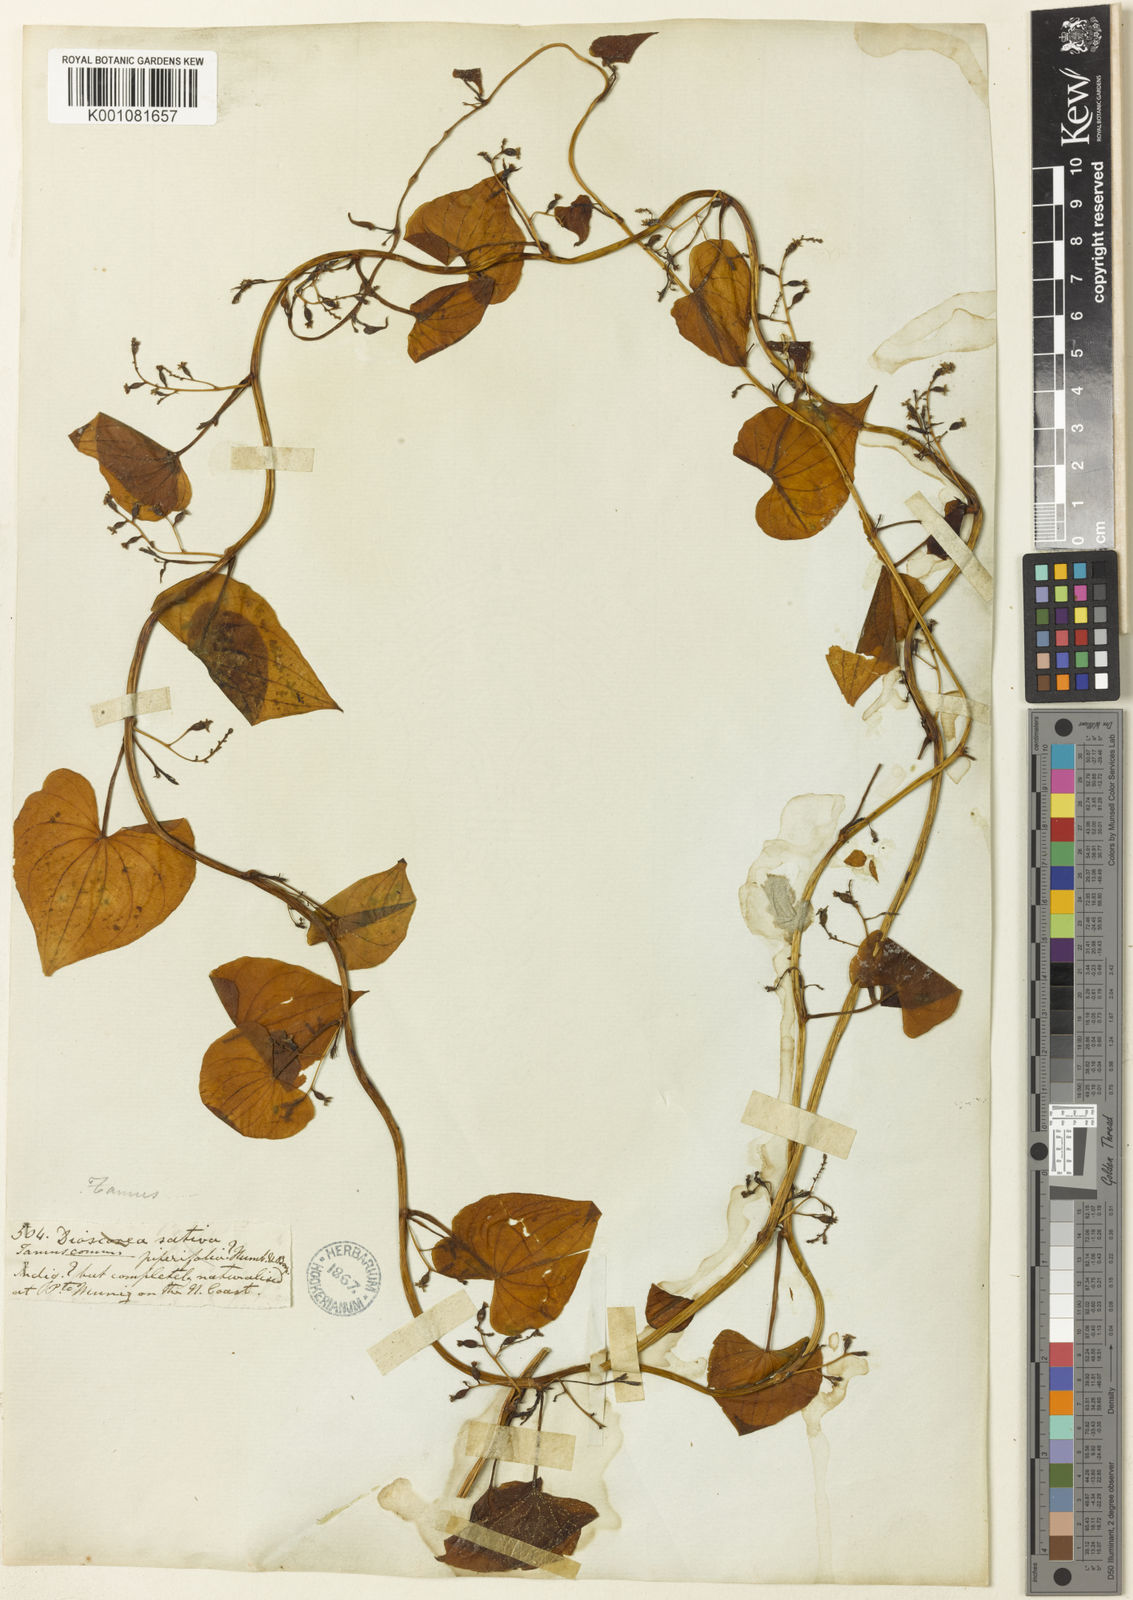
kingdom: Plantae
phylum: Tracheophyta
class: Liliopsida
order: Dioscoreales
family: Dioscoreaceae
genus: Dioscorea
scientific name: Dioscorea communis
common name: Black-bindweed
